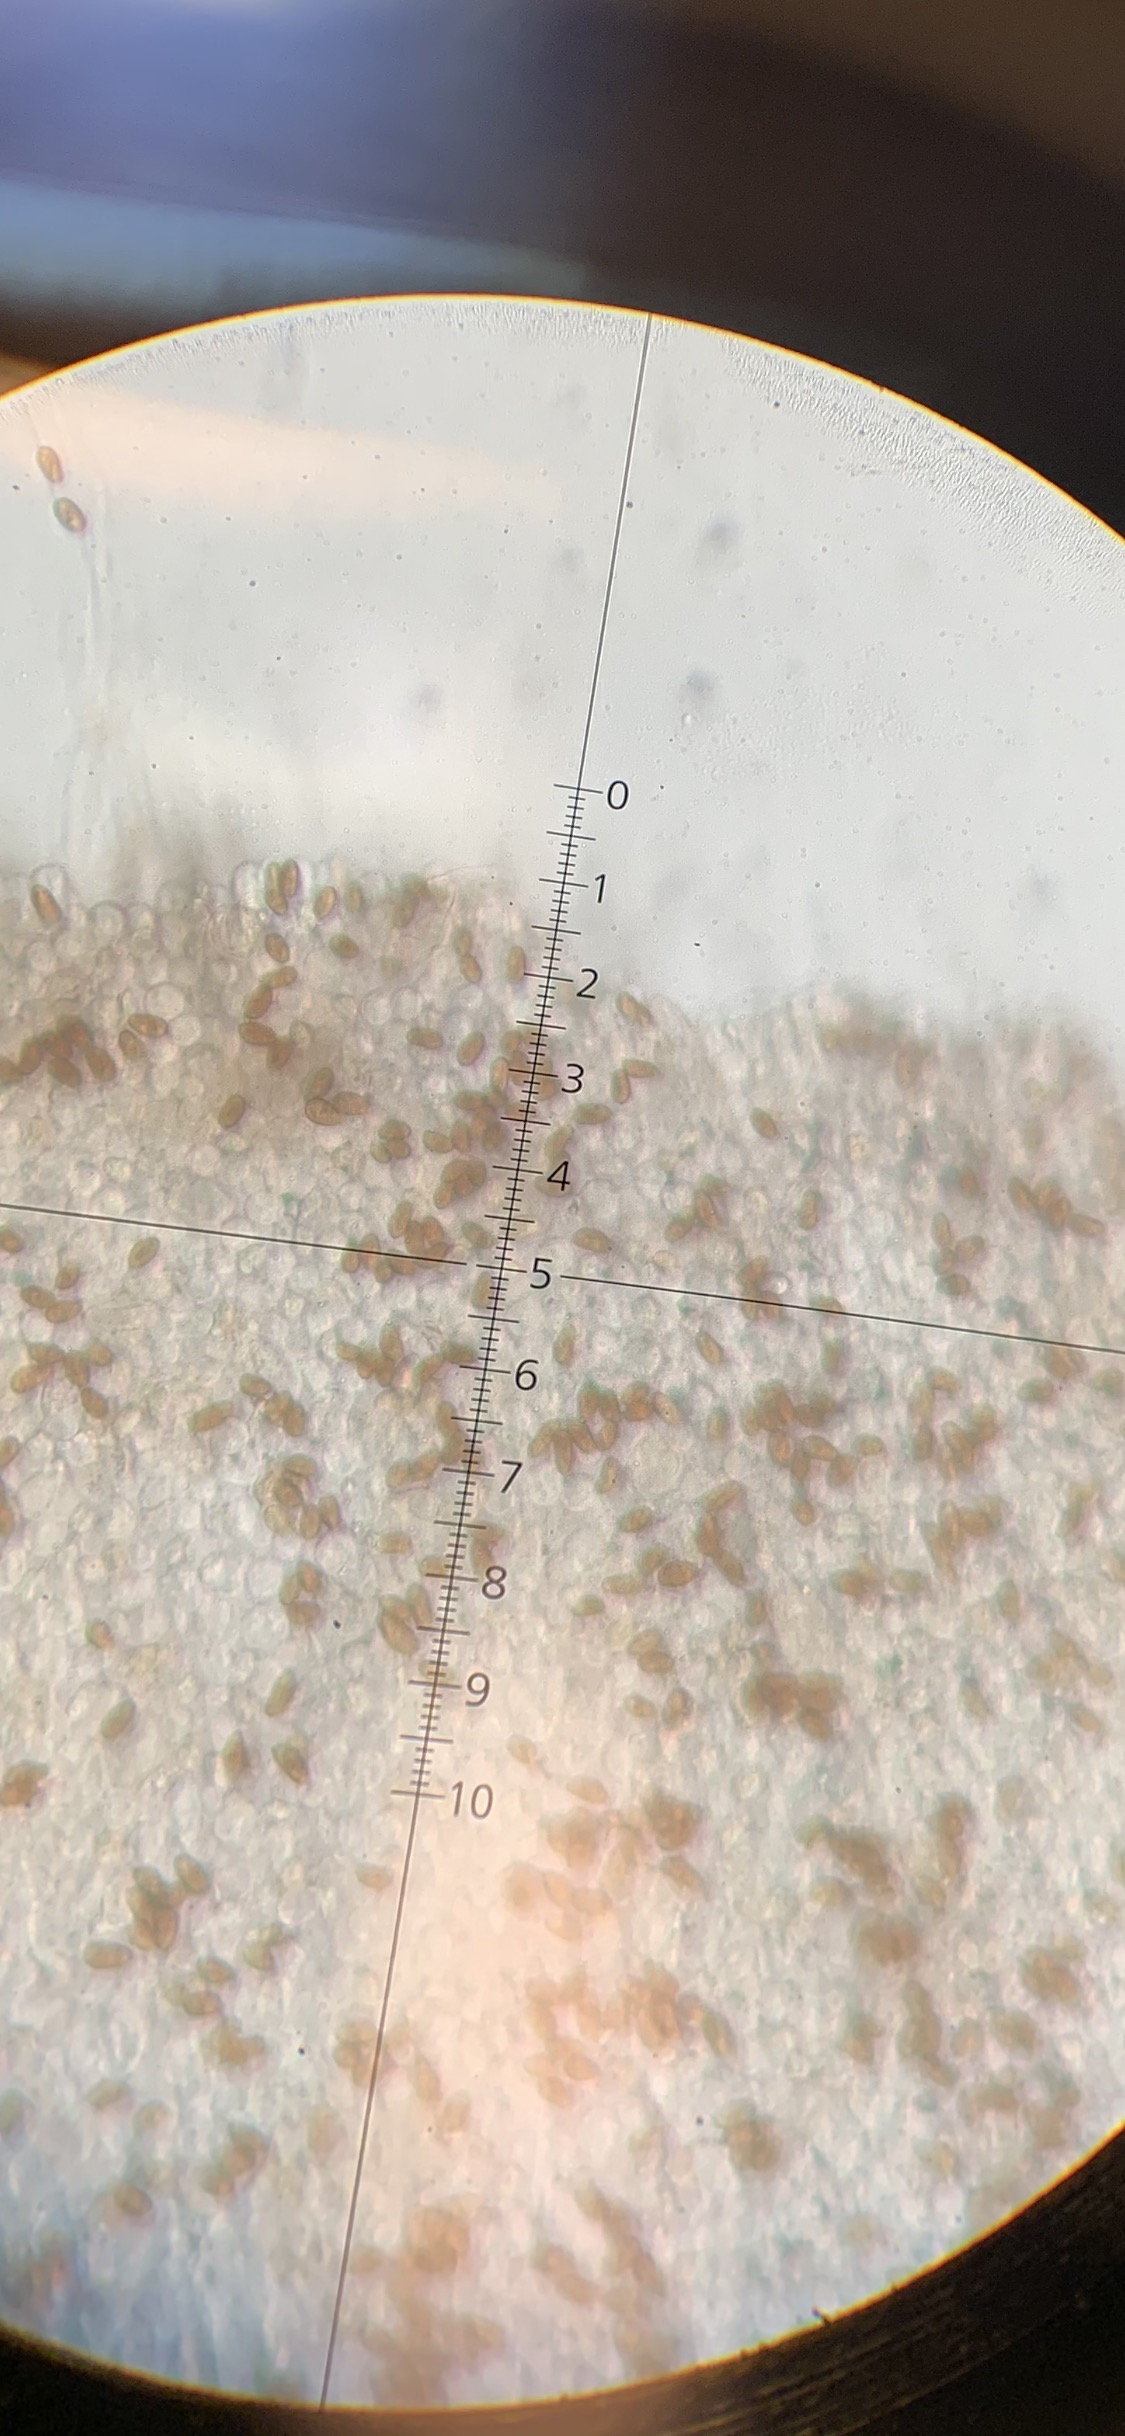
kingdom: Fungi
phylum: Basidiomycota
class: Agaricomycetes
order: Agaricales
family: Psathyrellaceae
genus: Psathyrella
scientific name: Psathyrella spadiceogrisea
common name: gråbrun mørkhat
